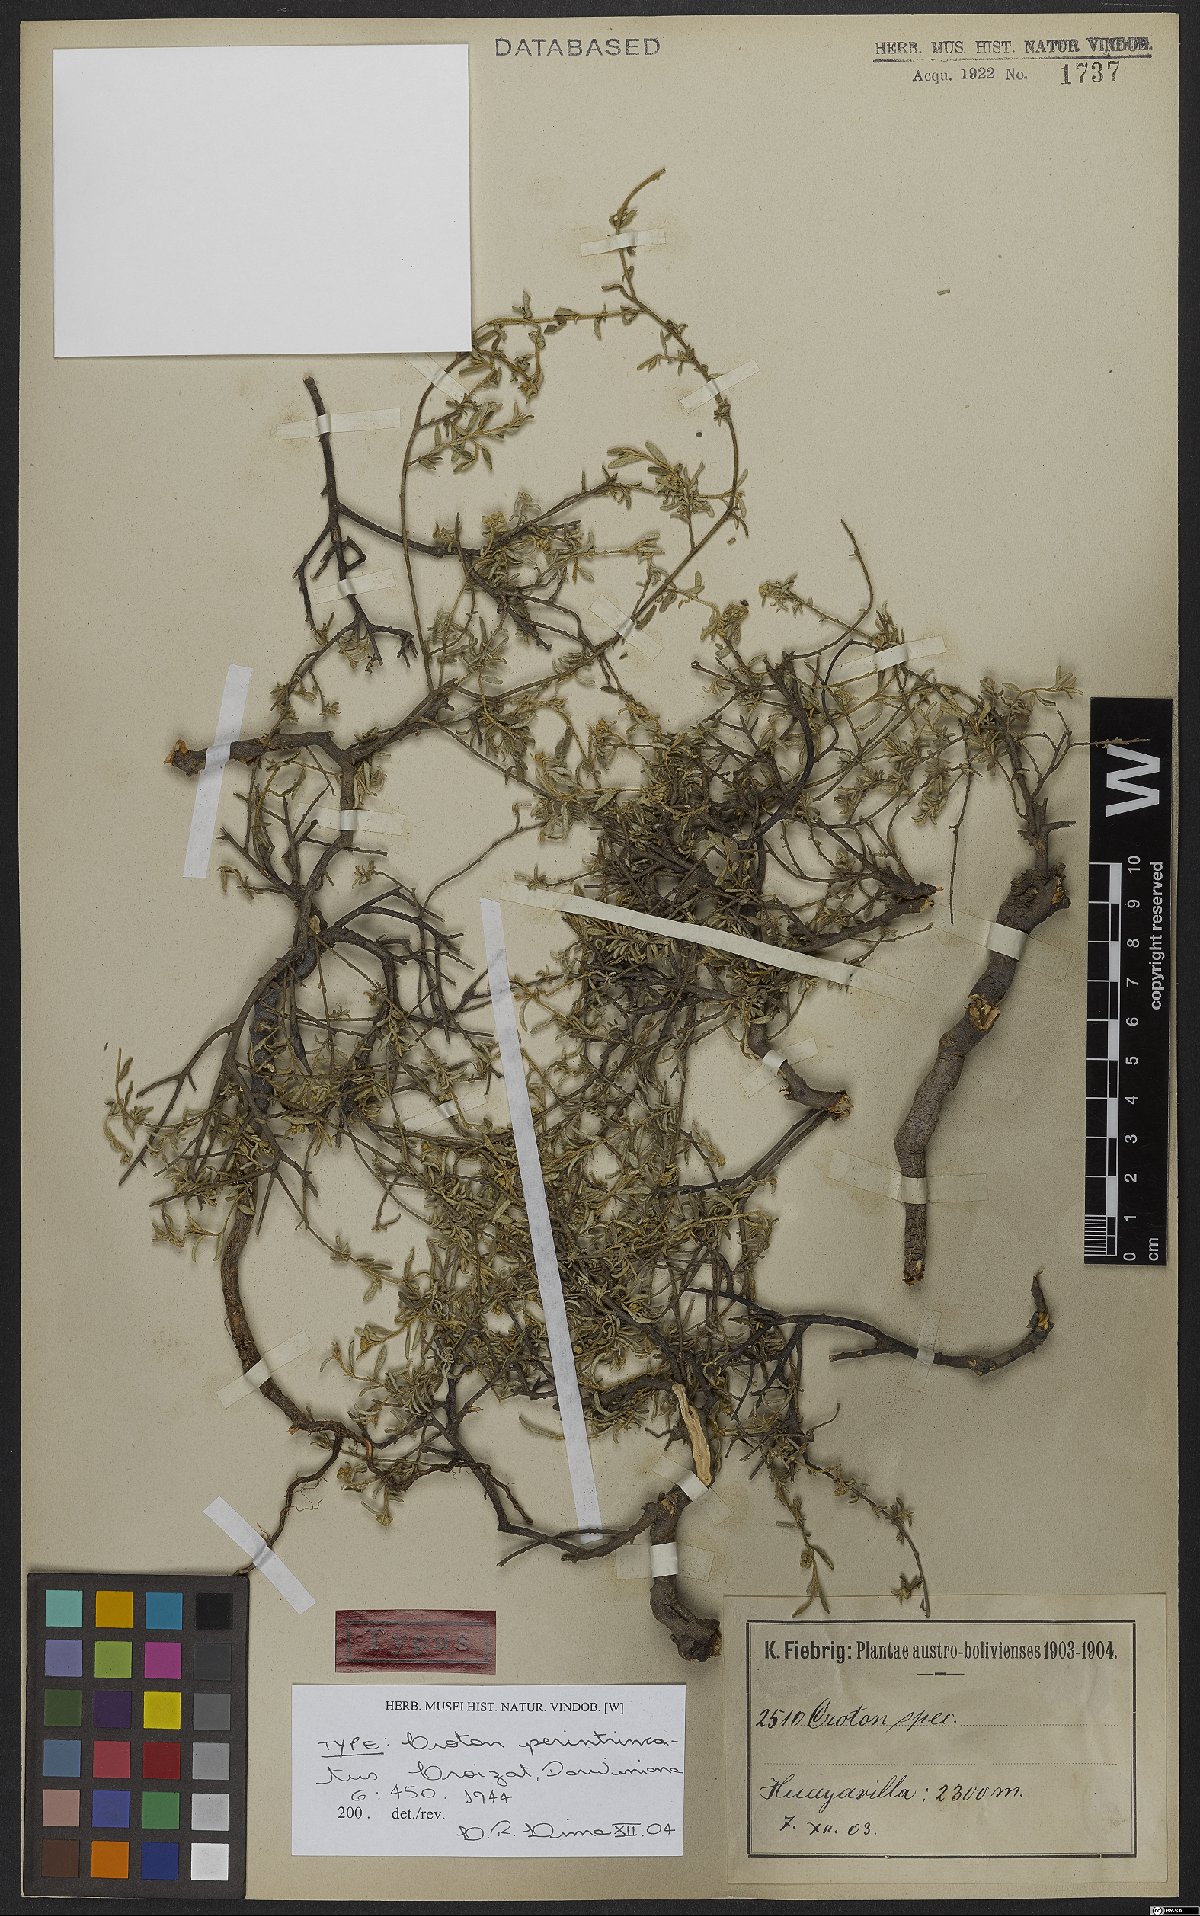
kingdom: Plantae
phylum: Tracheophyta
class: Magnoliopsida
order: Malpighiales
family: Euphorbiaceae
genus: Croton
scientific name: Croton perintricatus
